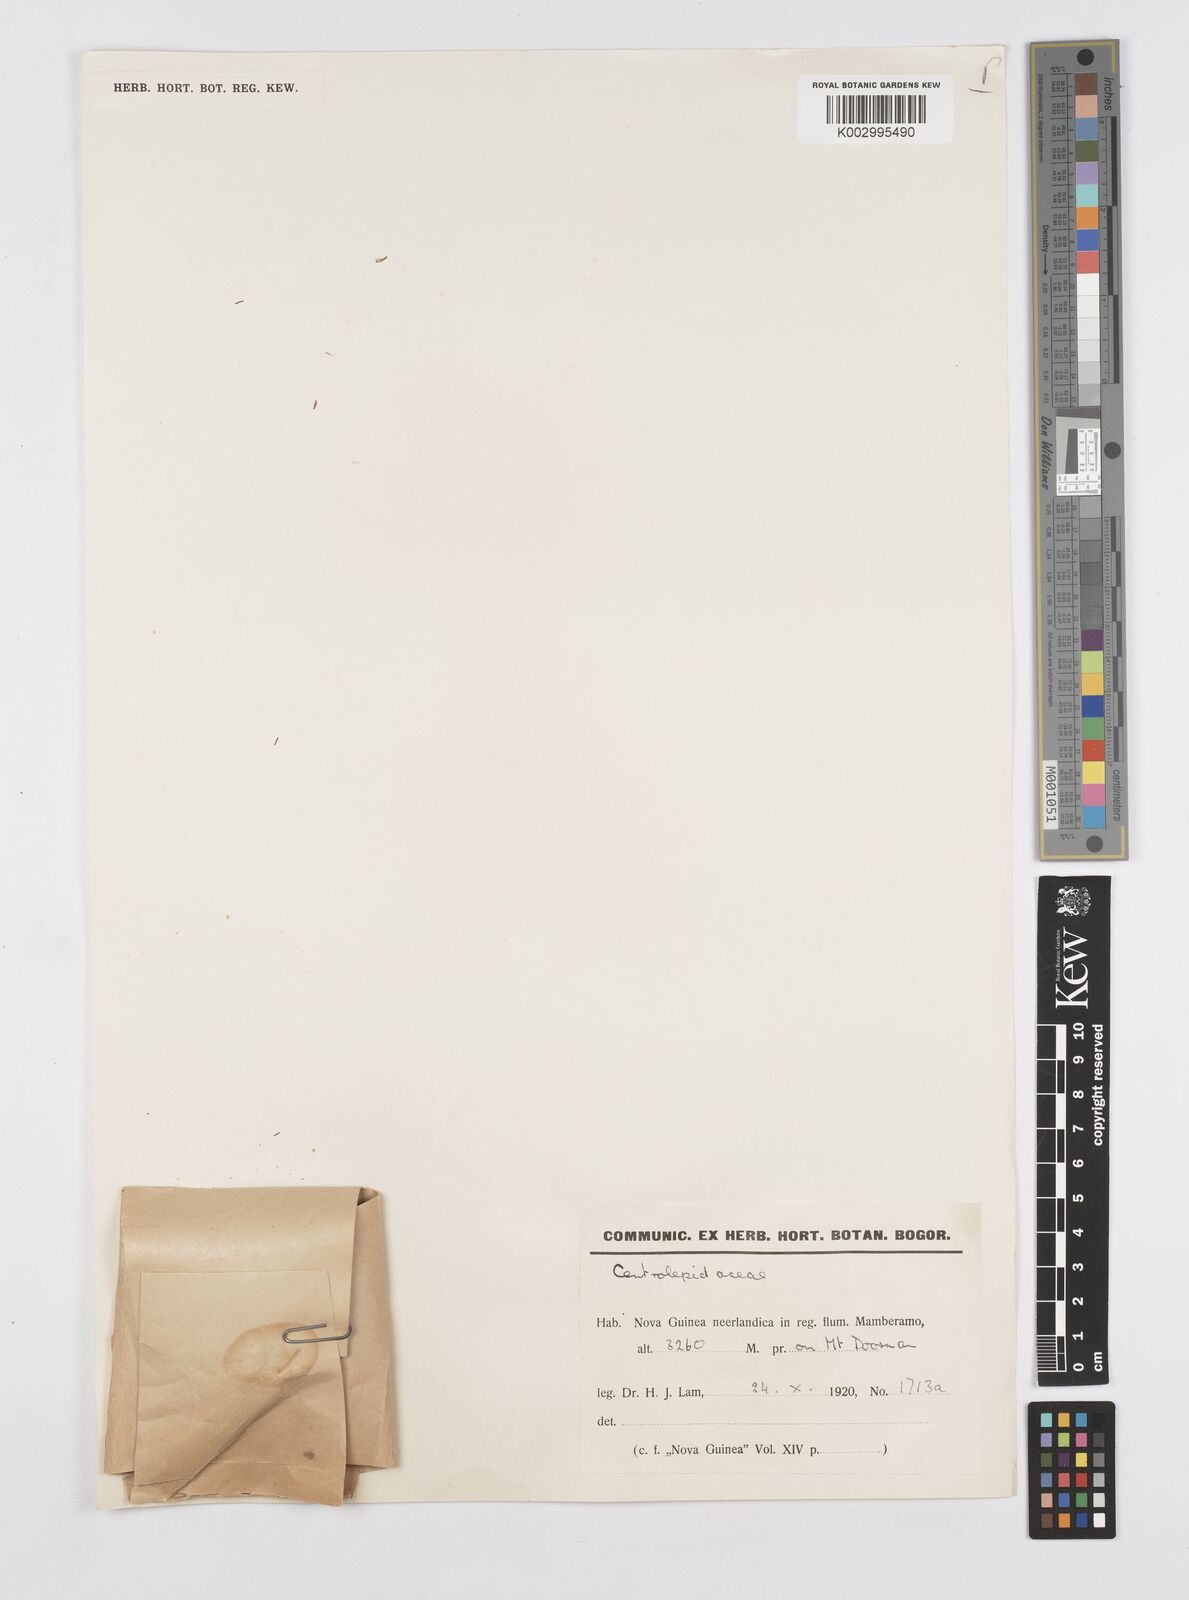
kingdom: Plantae
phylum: Tracheophyta
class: Liliopsida
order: Poales
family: Restionaceae
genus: Centrolepis
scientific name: Centrolepis
